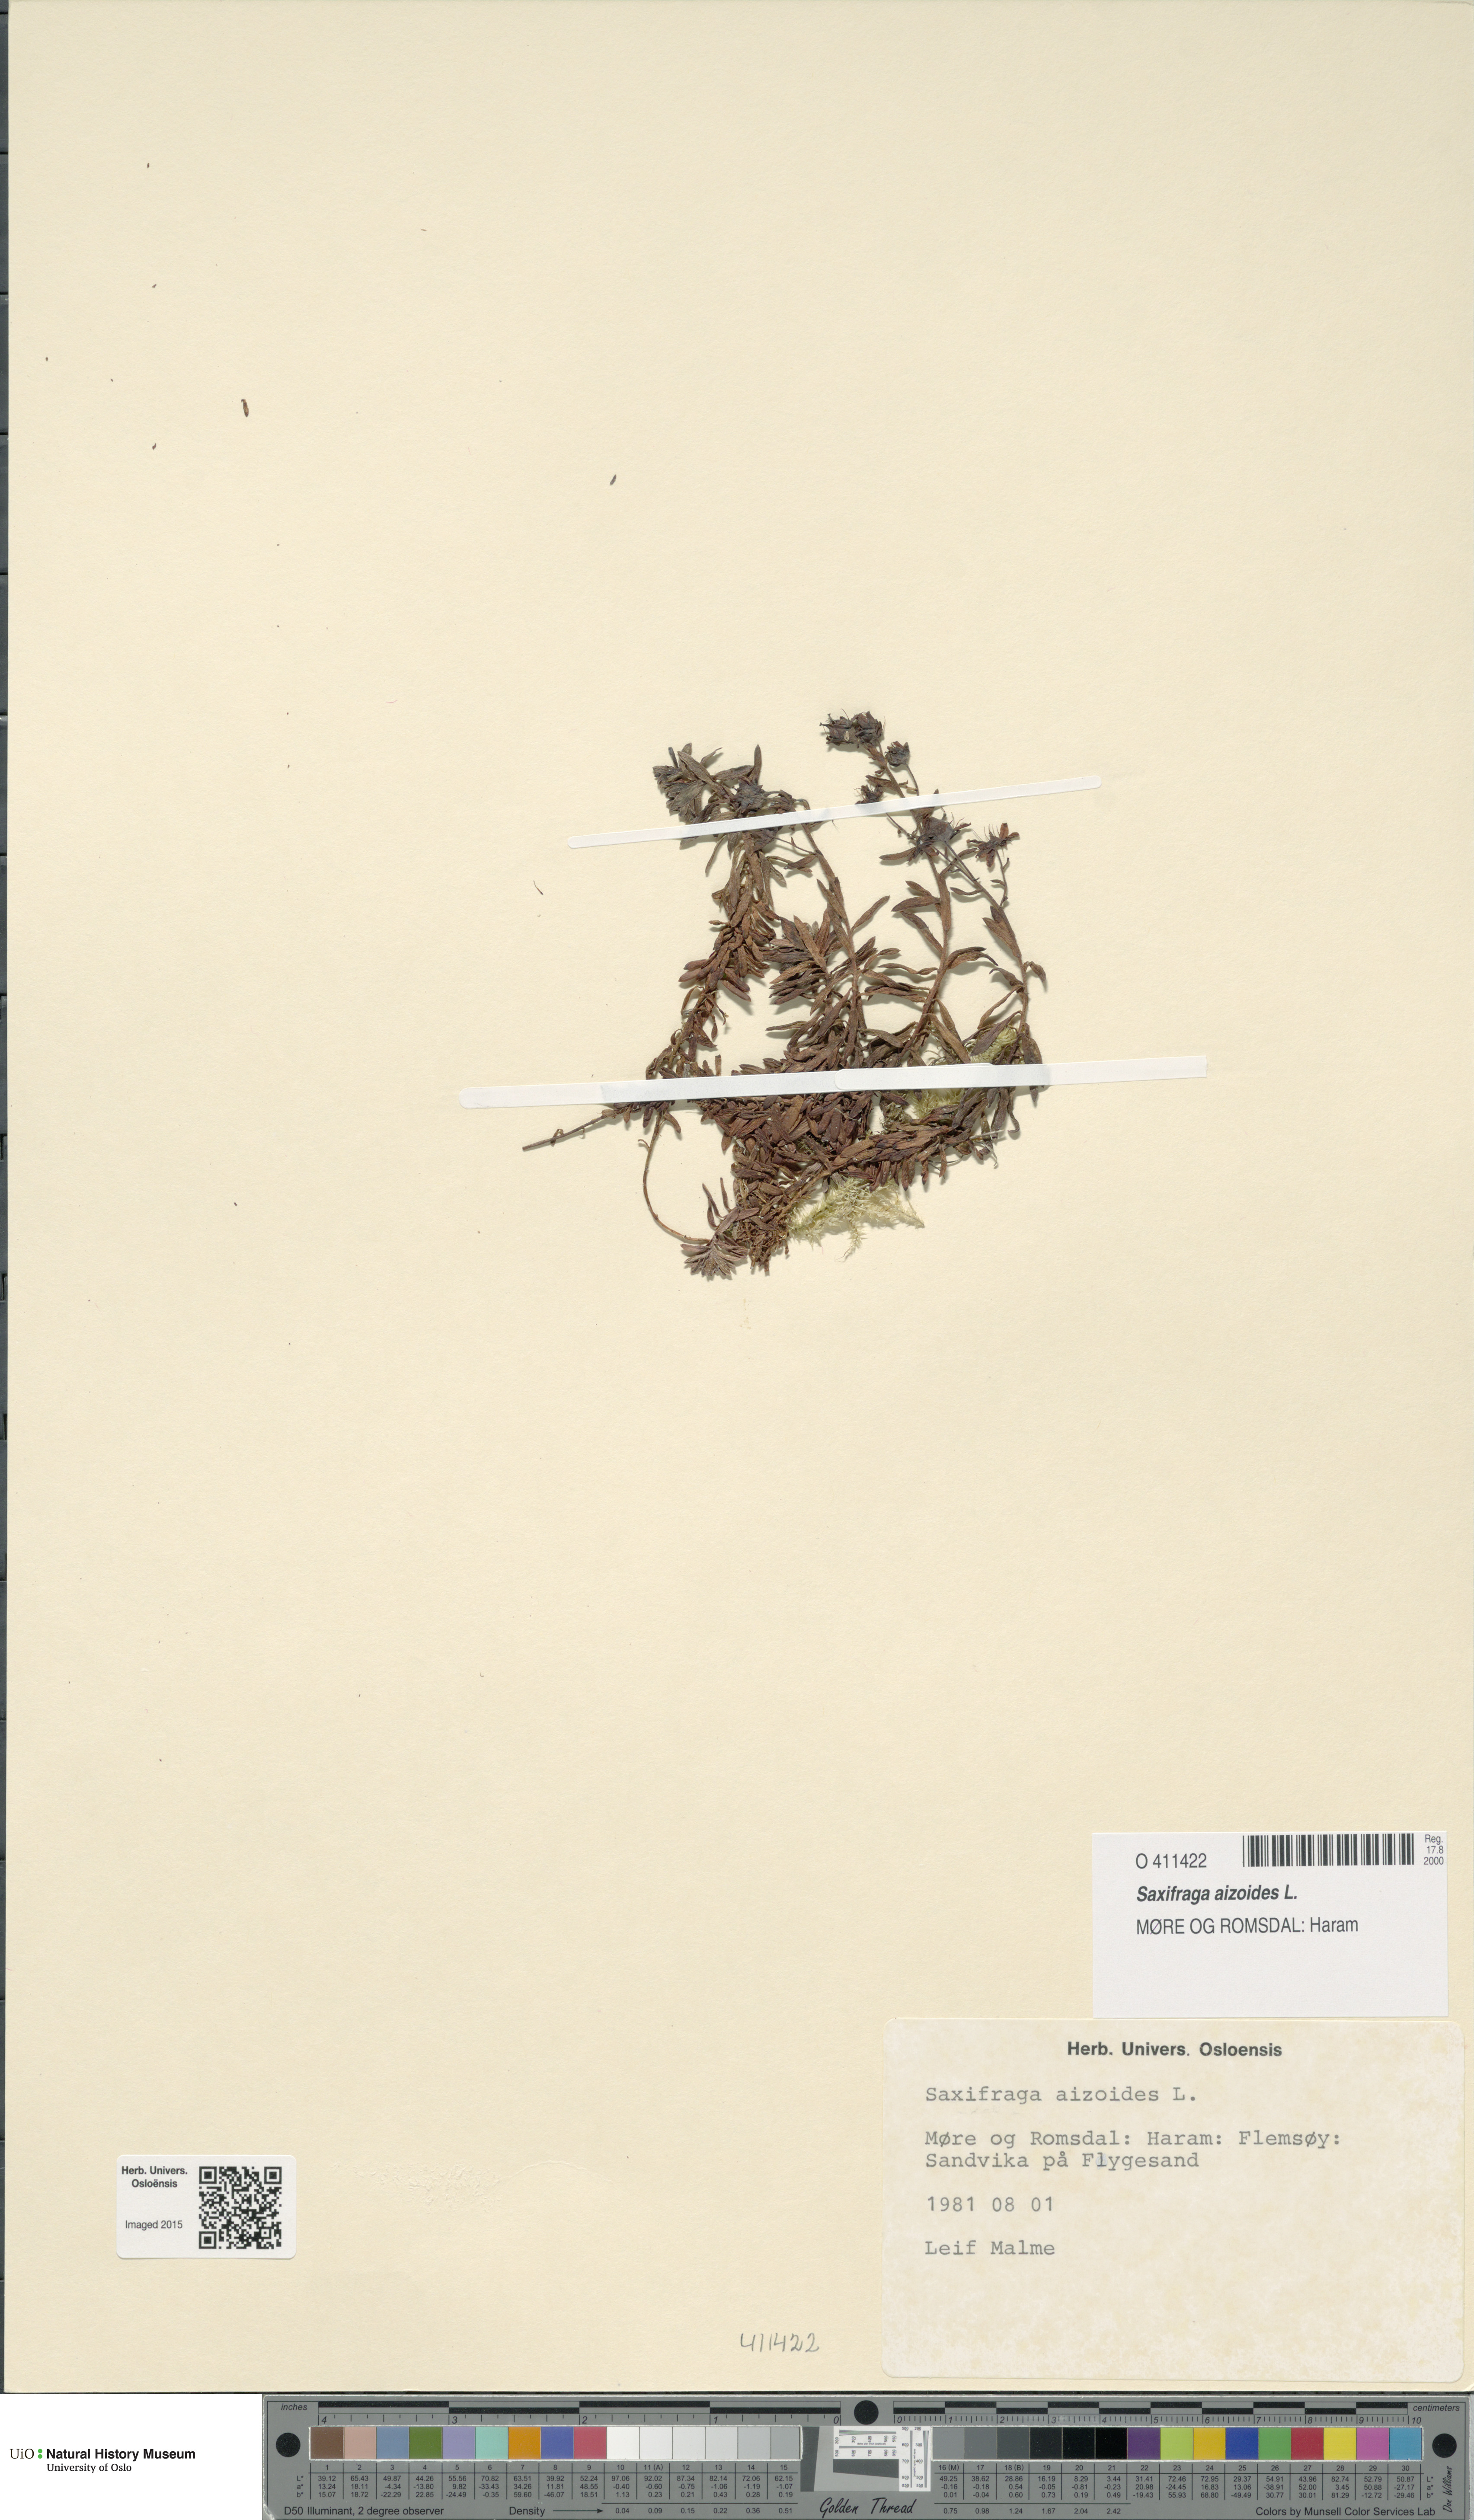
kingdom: Plantae
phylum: Tracheophyta
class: Magnoliopsida
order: Saxifragales
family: Saxifragaceae
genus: Saxifraga
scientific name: Saxifraga aizoides
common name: Yellow mountain saxifrage
